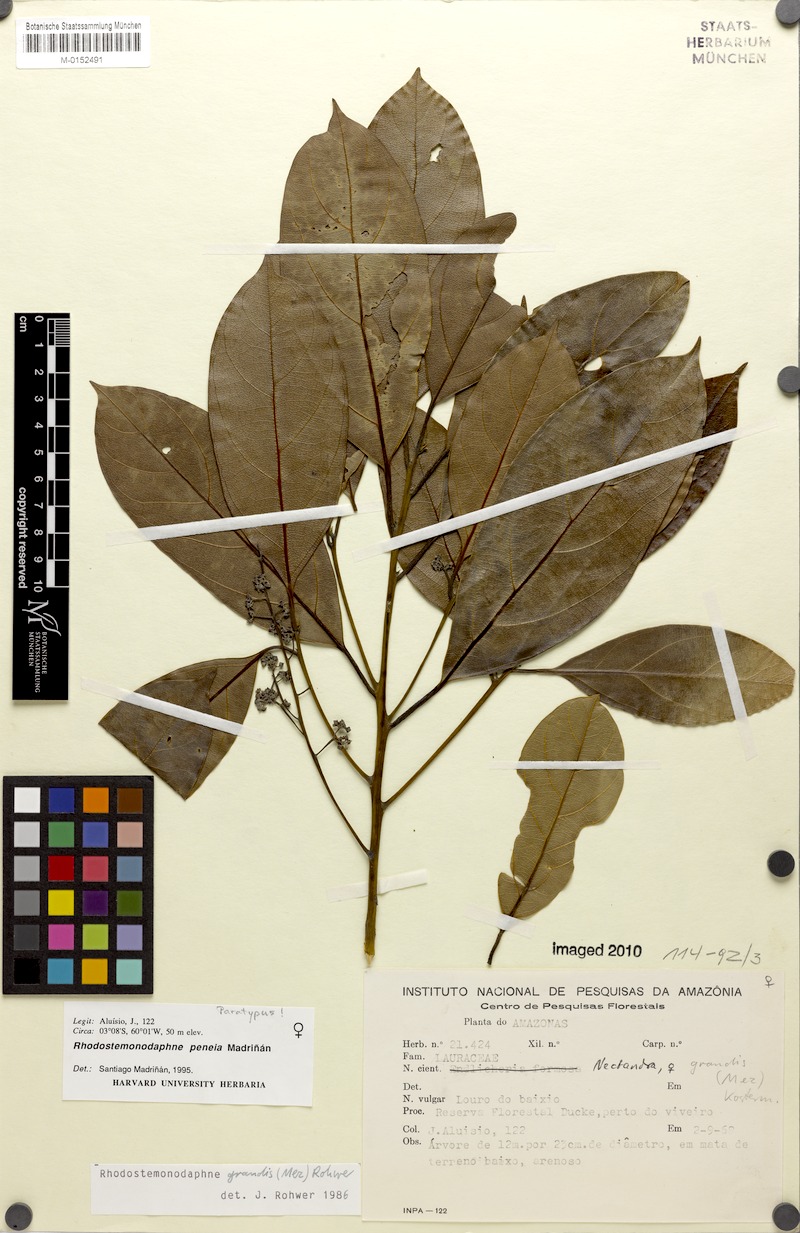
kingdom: Plantae
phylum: Tracheophyta
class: Magnoliopsida
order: Laurales
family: Lauraceae
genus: Rhodostemonodaphne
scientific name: Rhodostemonodaphne peneia
